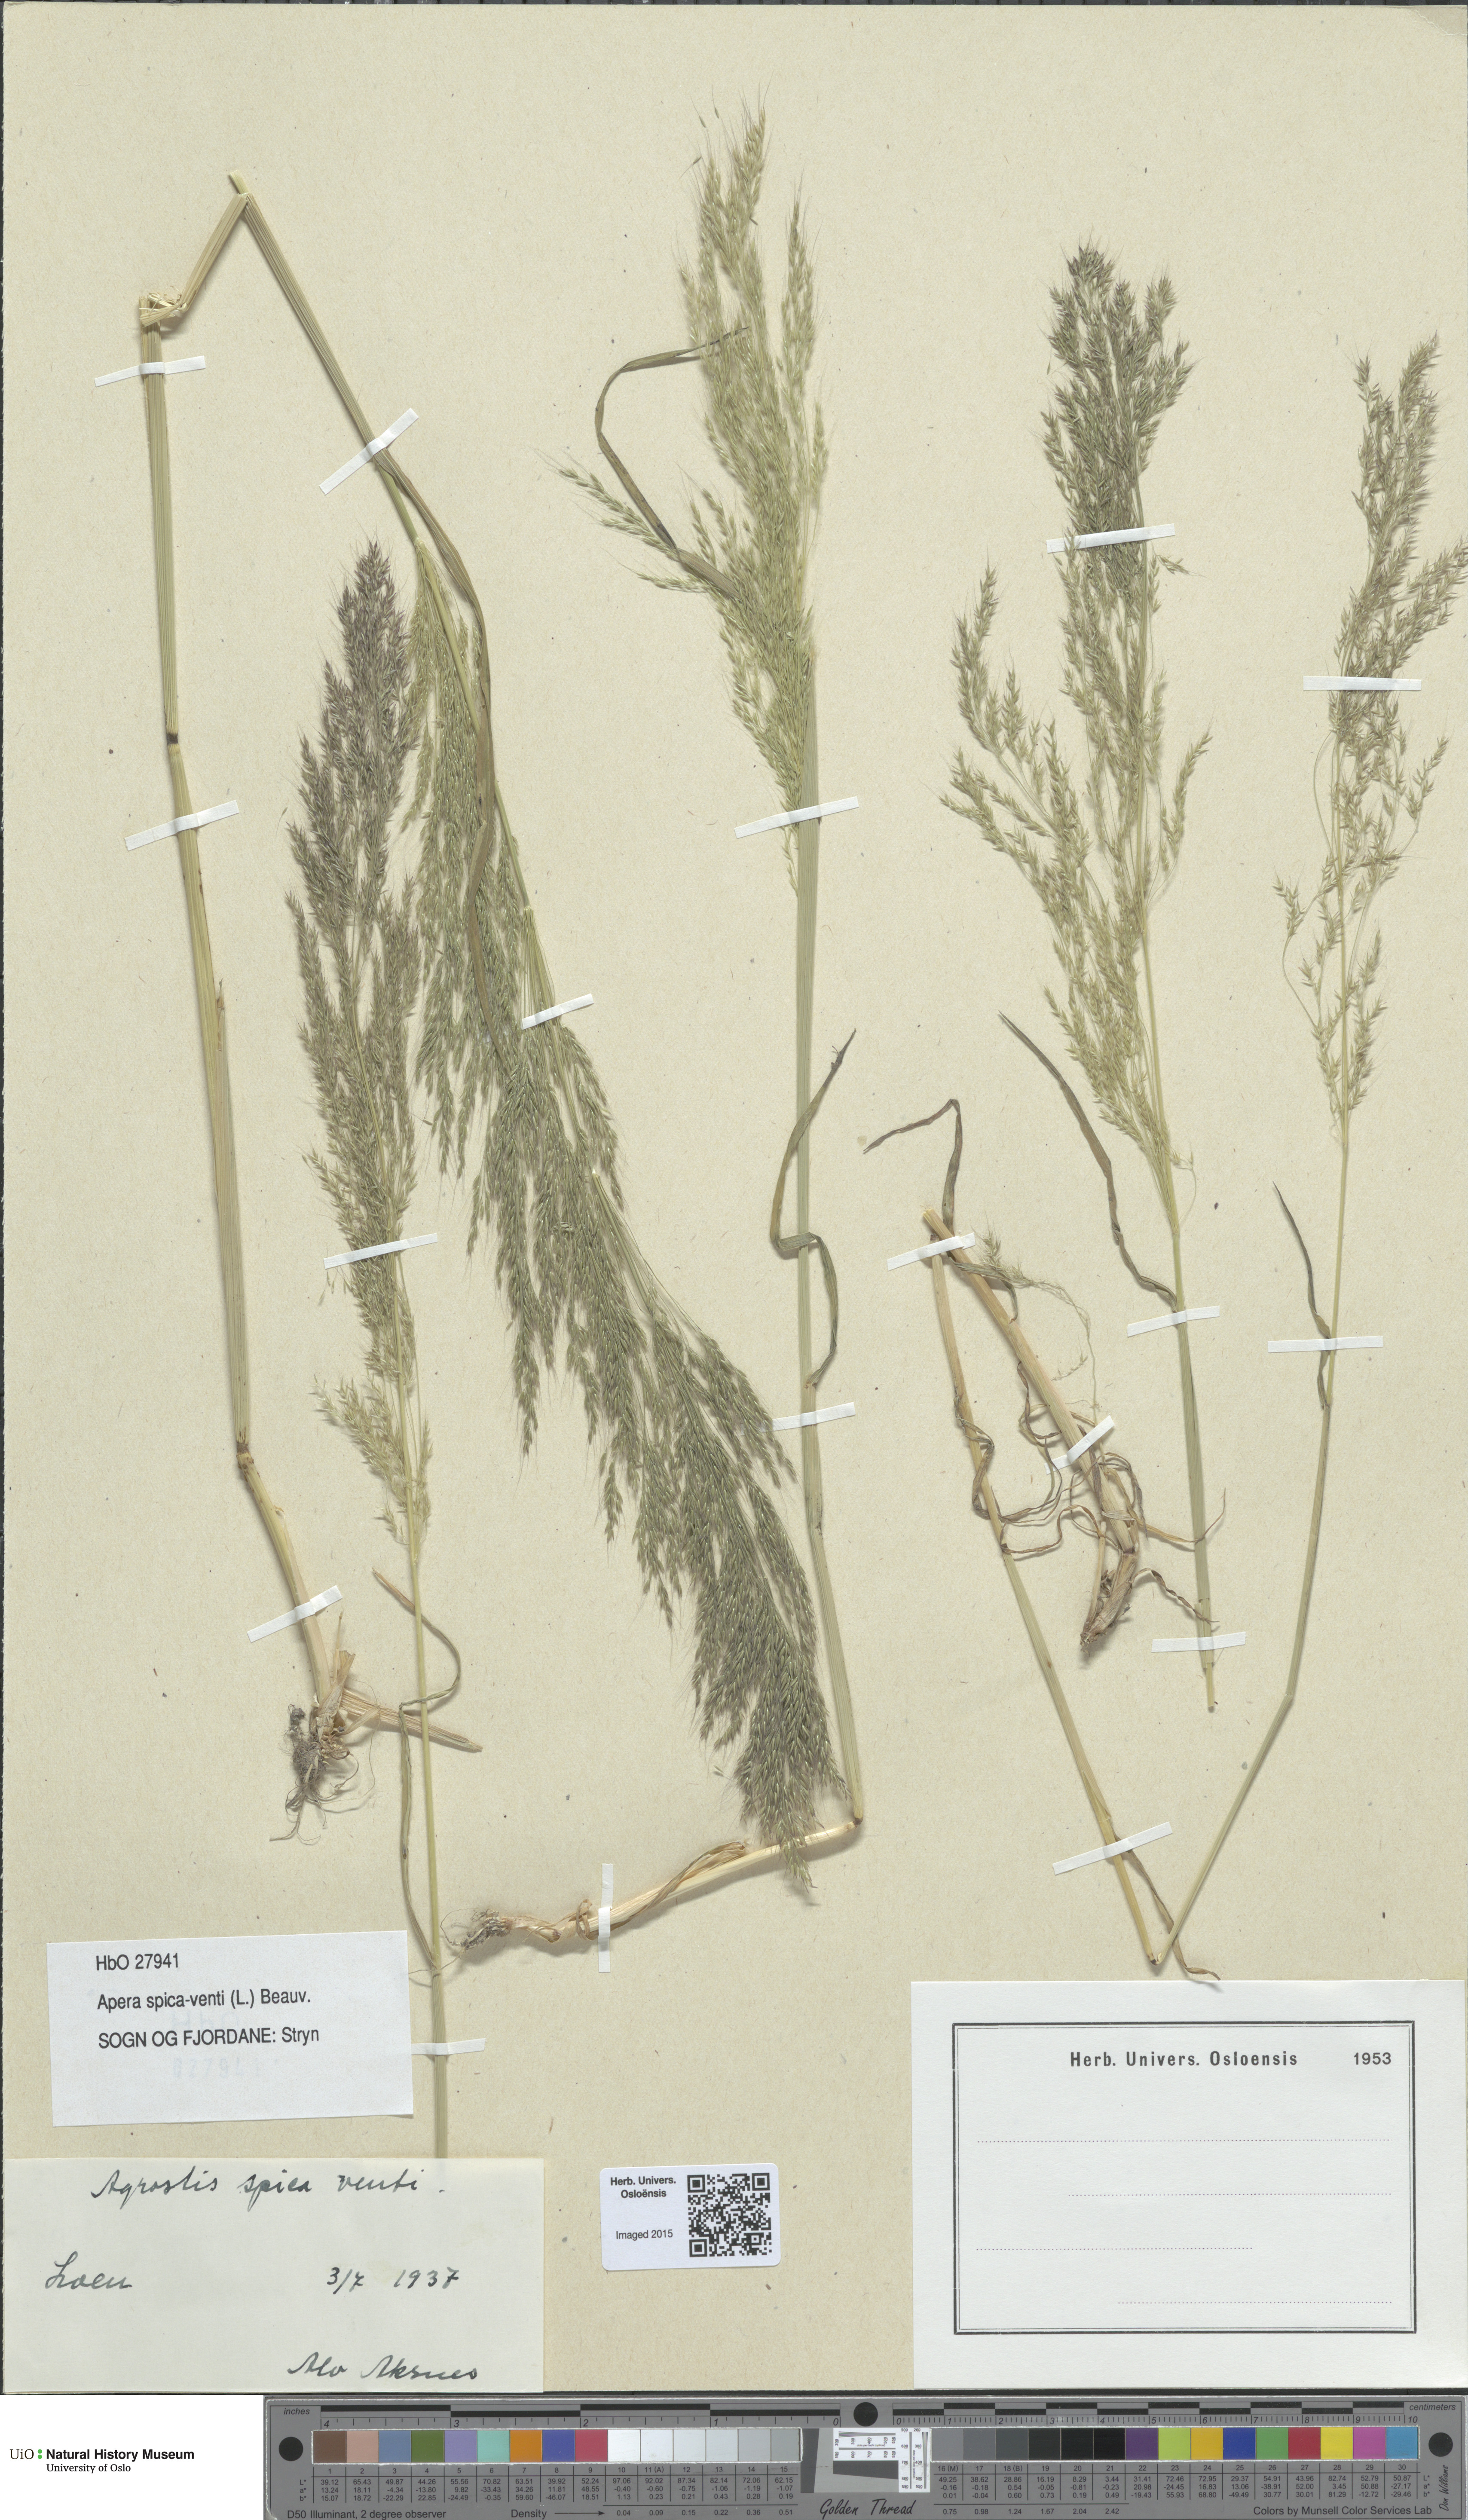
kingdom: Plantae
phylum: Tracheophyta
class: Liliopsida
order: Poales
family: Poaceae
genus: Apera
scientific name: Apera spica-venti
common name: Loose silky-bent
